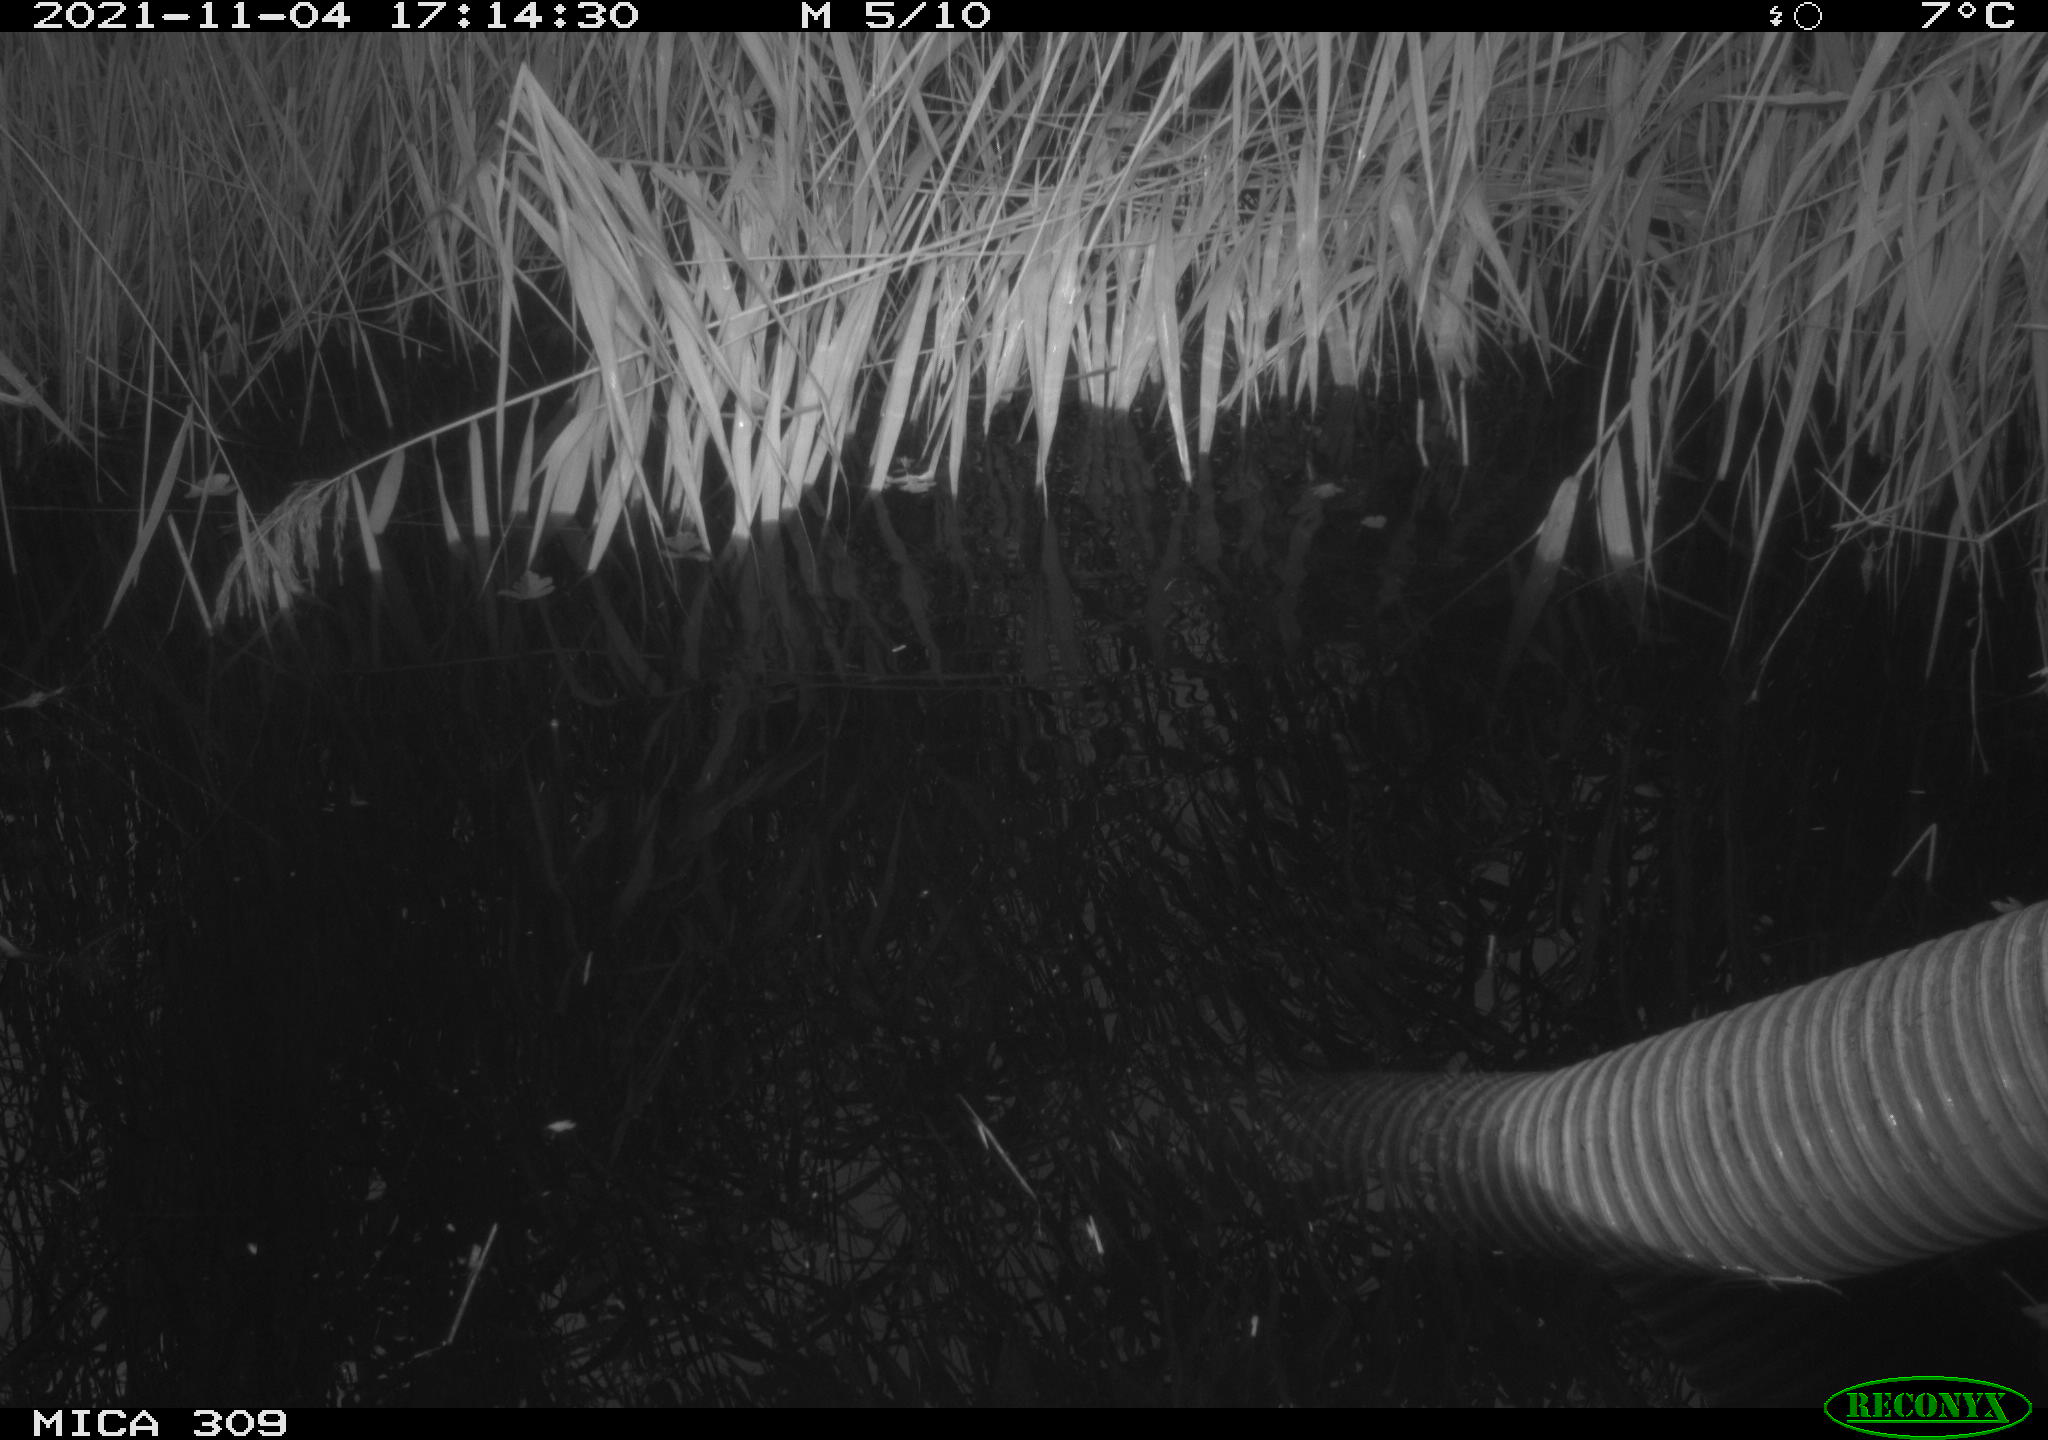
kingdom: Animalia
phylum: Chordata
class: Aves
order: Gruiformes
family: Rallidae
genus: Gallinula
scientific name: Gallinula chloropus
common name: Common moorhen
